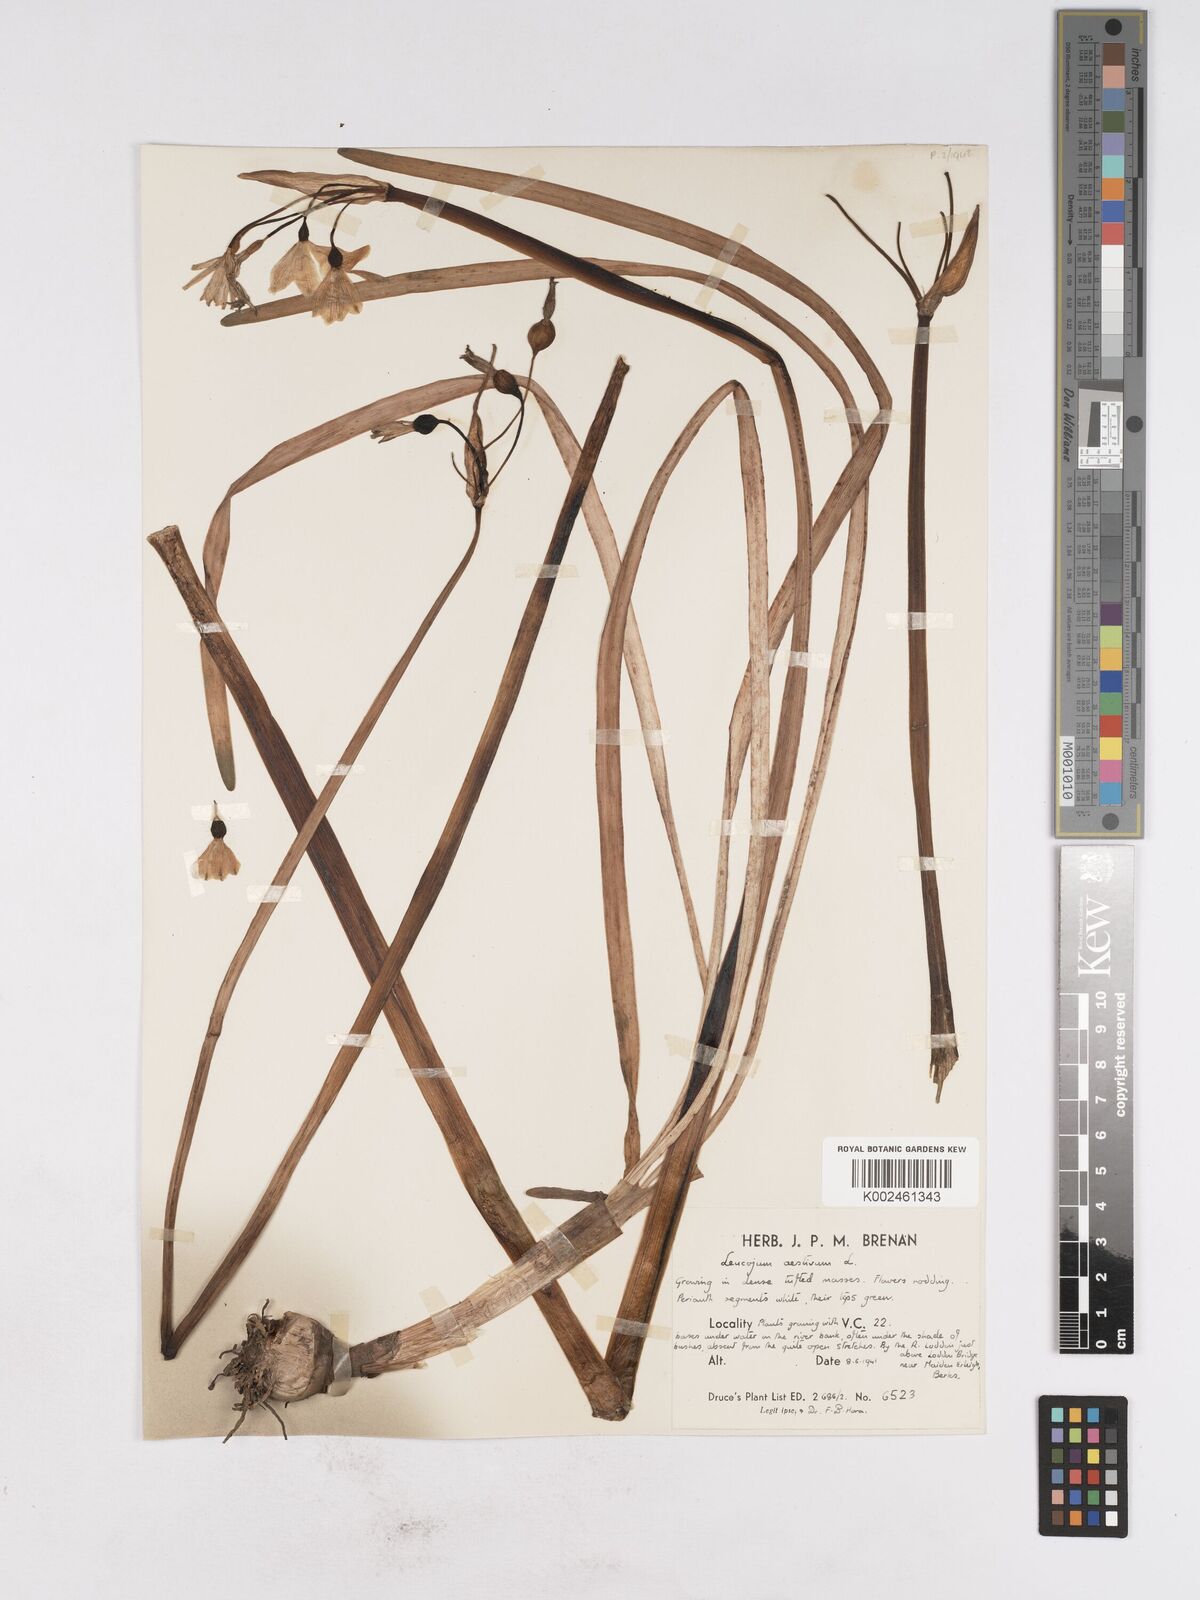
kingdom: Plantae
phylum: Tracheophyta
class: Liliopsida
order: Asparagales
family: Amaryllidaceae
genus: Leucojum
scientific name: Leucojum aestivum
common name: Summer snowflake
